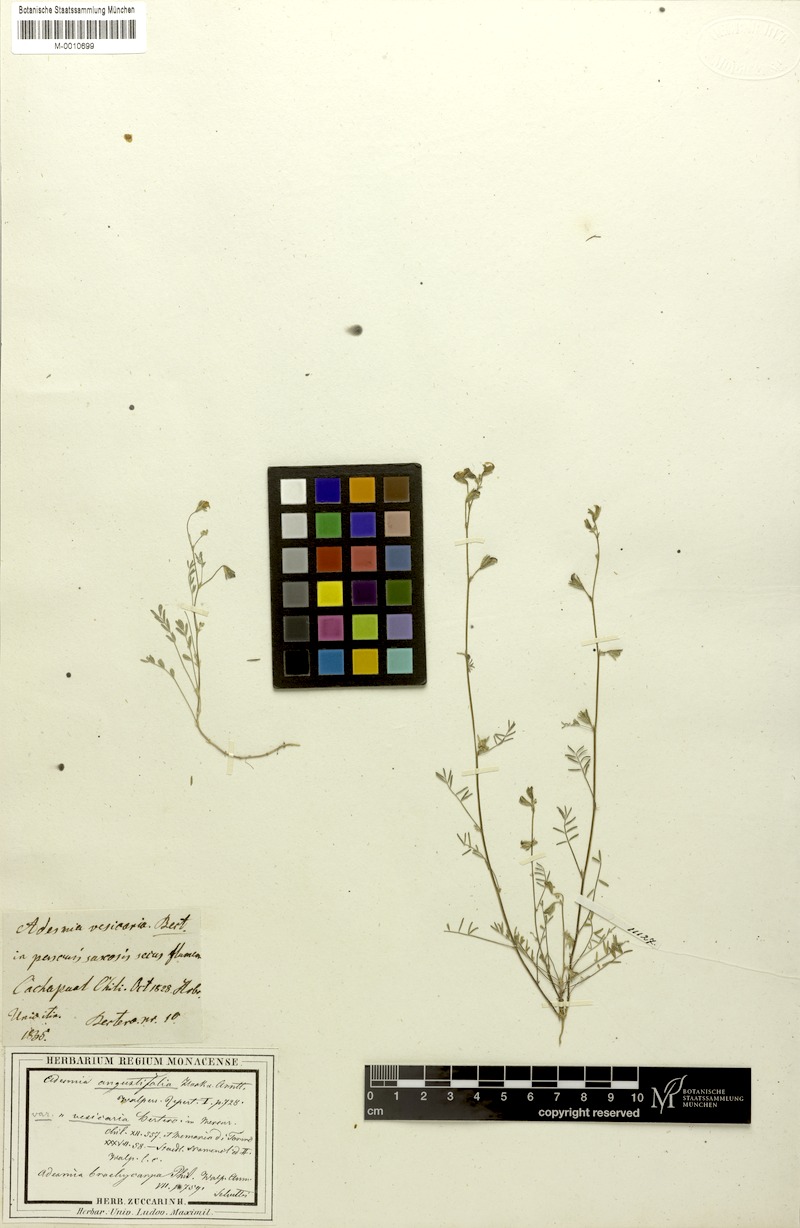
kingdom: Plantae
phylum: Tracheophyta
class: Magnoliopsida
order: Fabales
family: Fabaceae
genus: Adesmia
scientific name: Adesmia tenella
